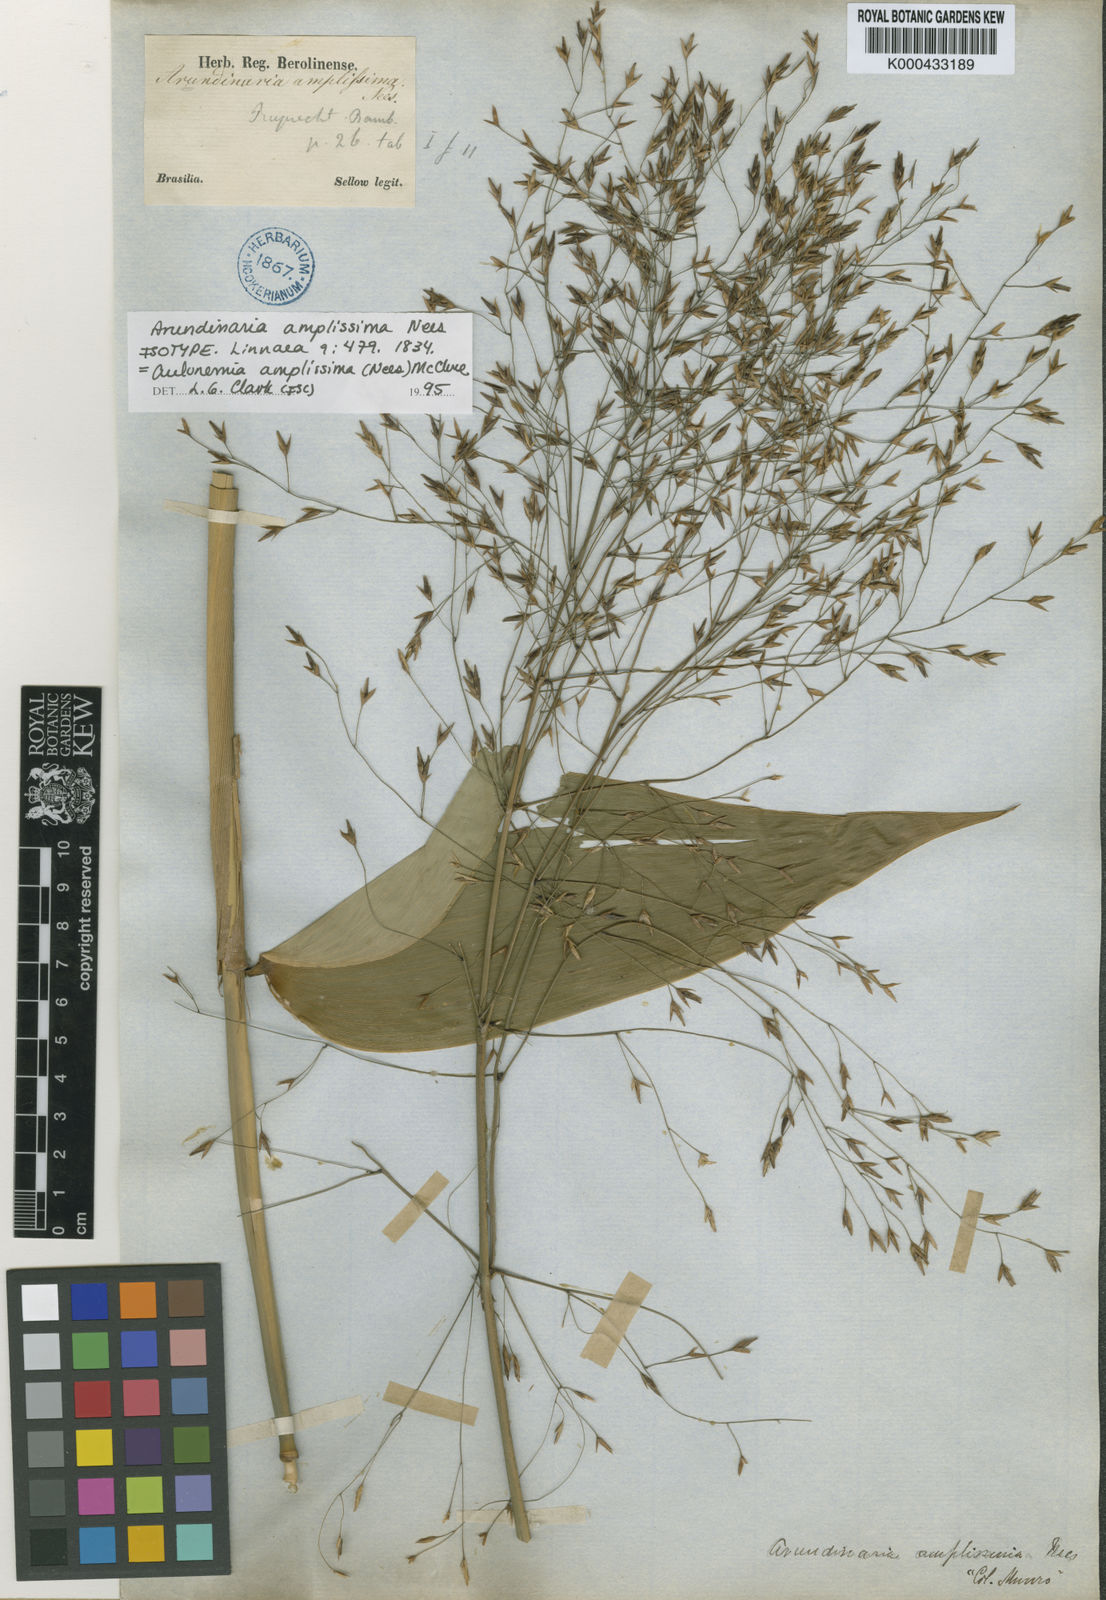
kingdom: Plantae
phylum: Tracheophyta
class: Liliopsida
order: Poales
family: Poaceae
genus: Aulonemia
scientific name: Aulonemia
